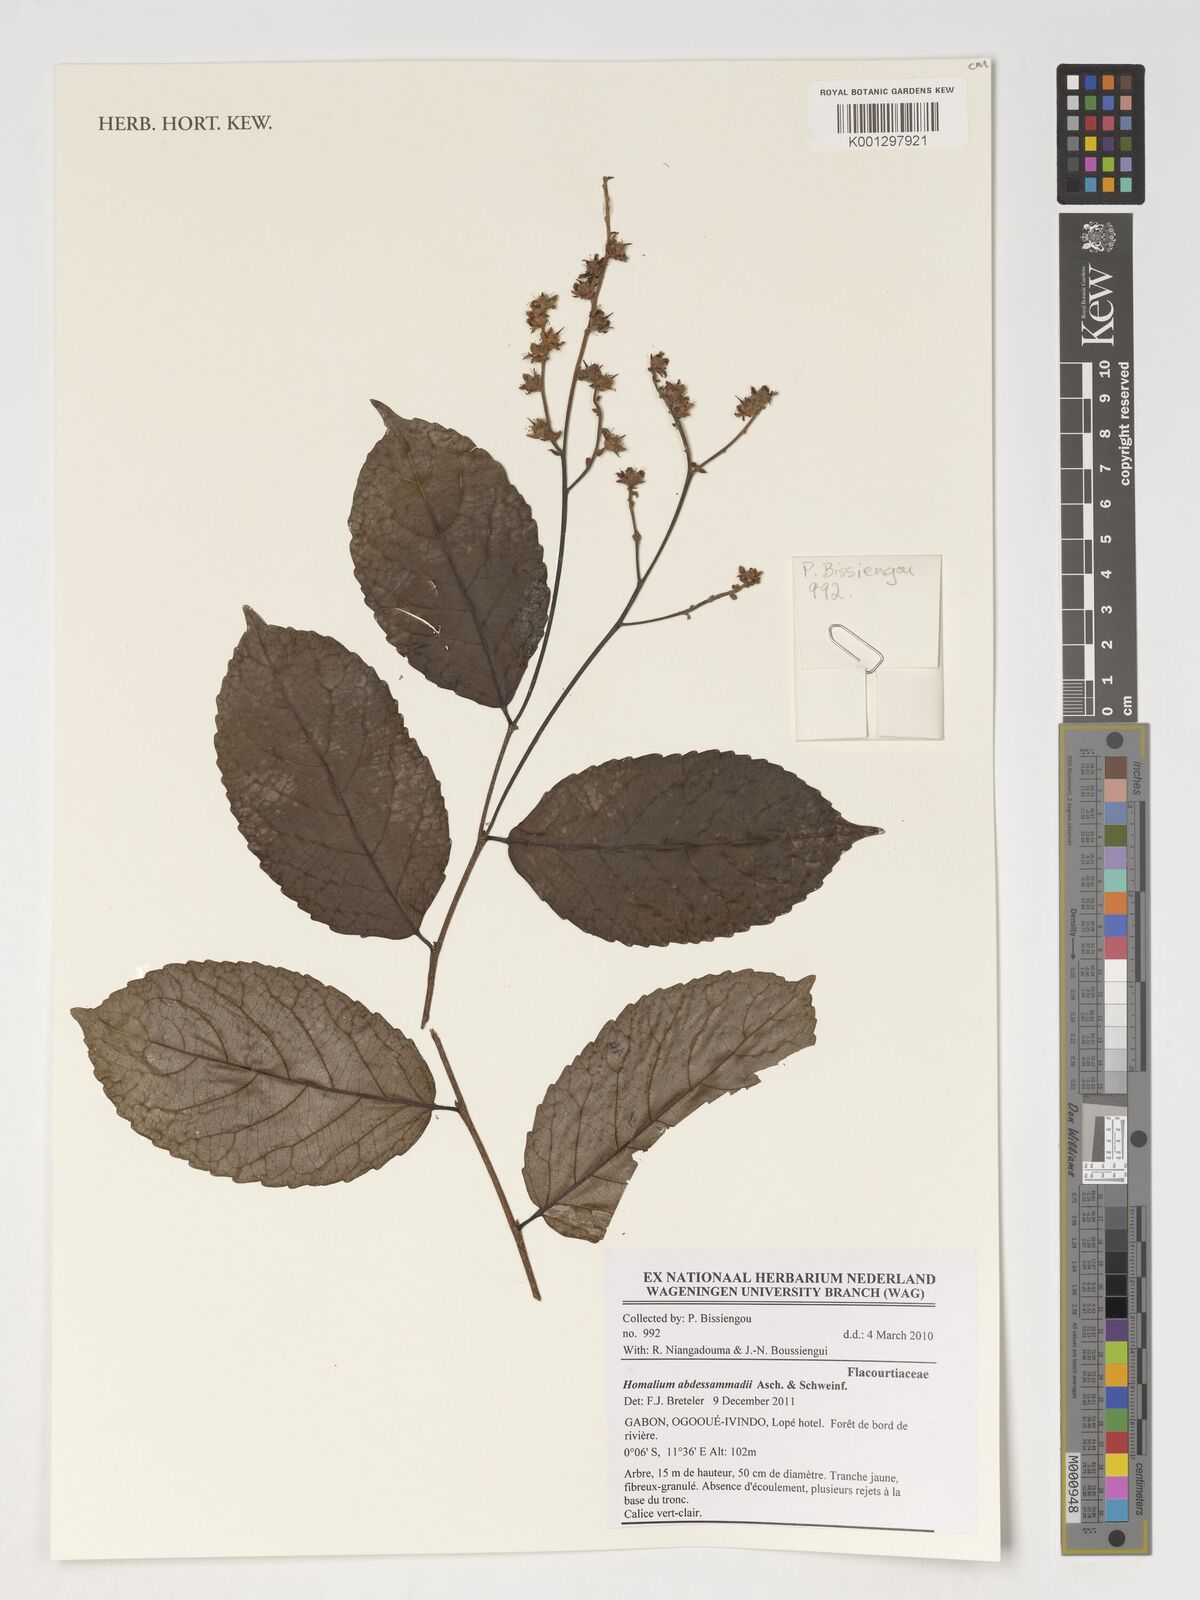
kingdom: Plantae
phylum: Tracheophyta
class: Magnoliopsida
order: Malpighiales
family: Salicaceae
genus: Homalium
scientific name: Homalium abdessammadii
